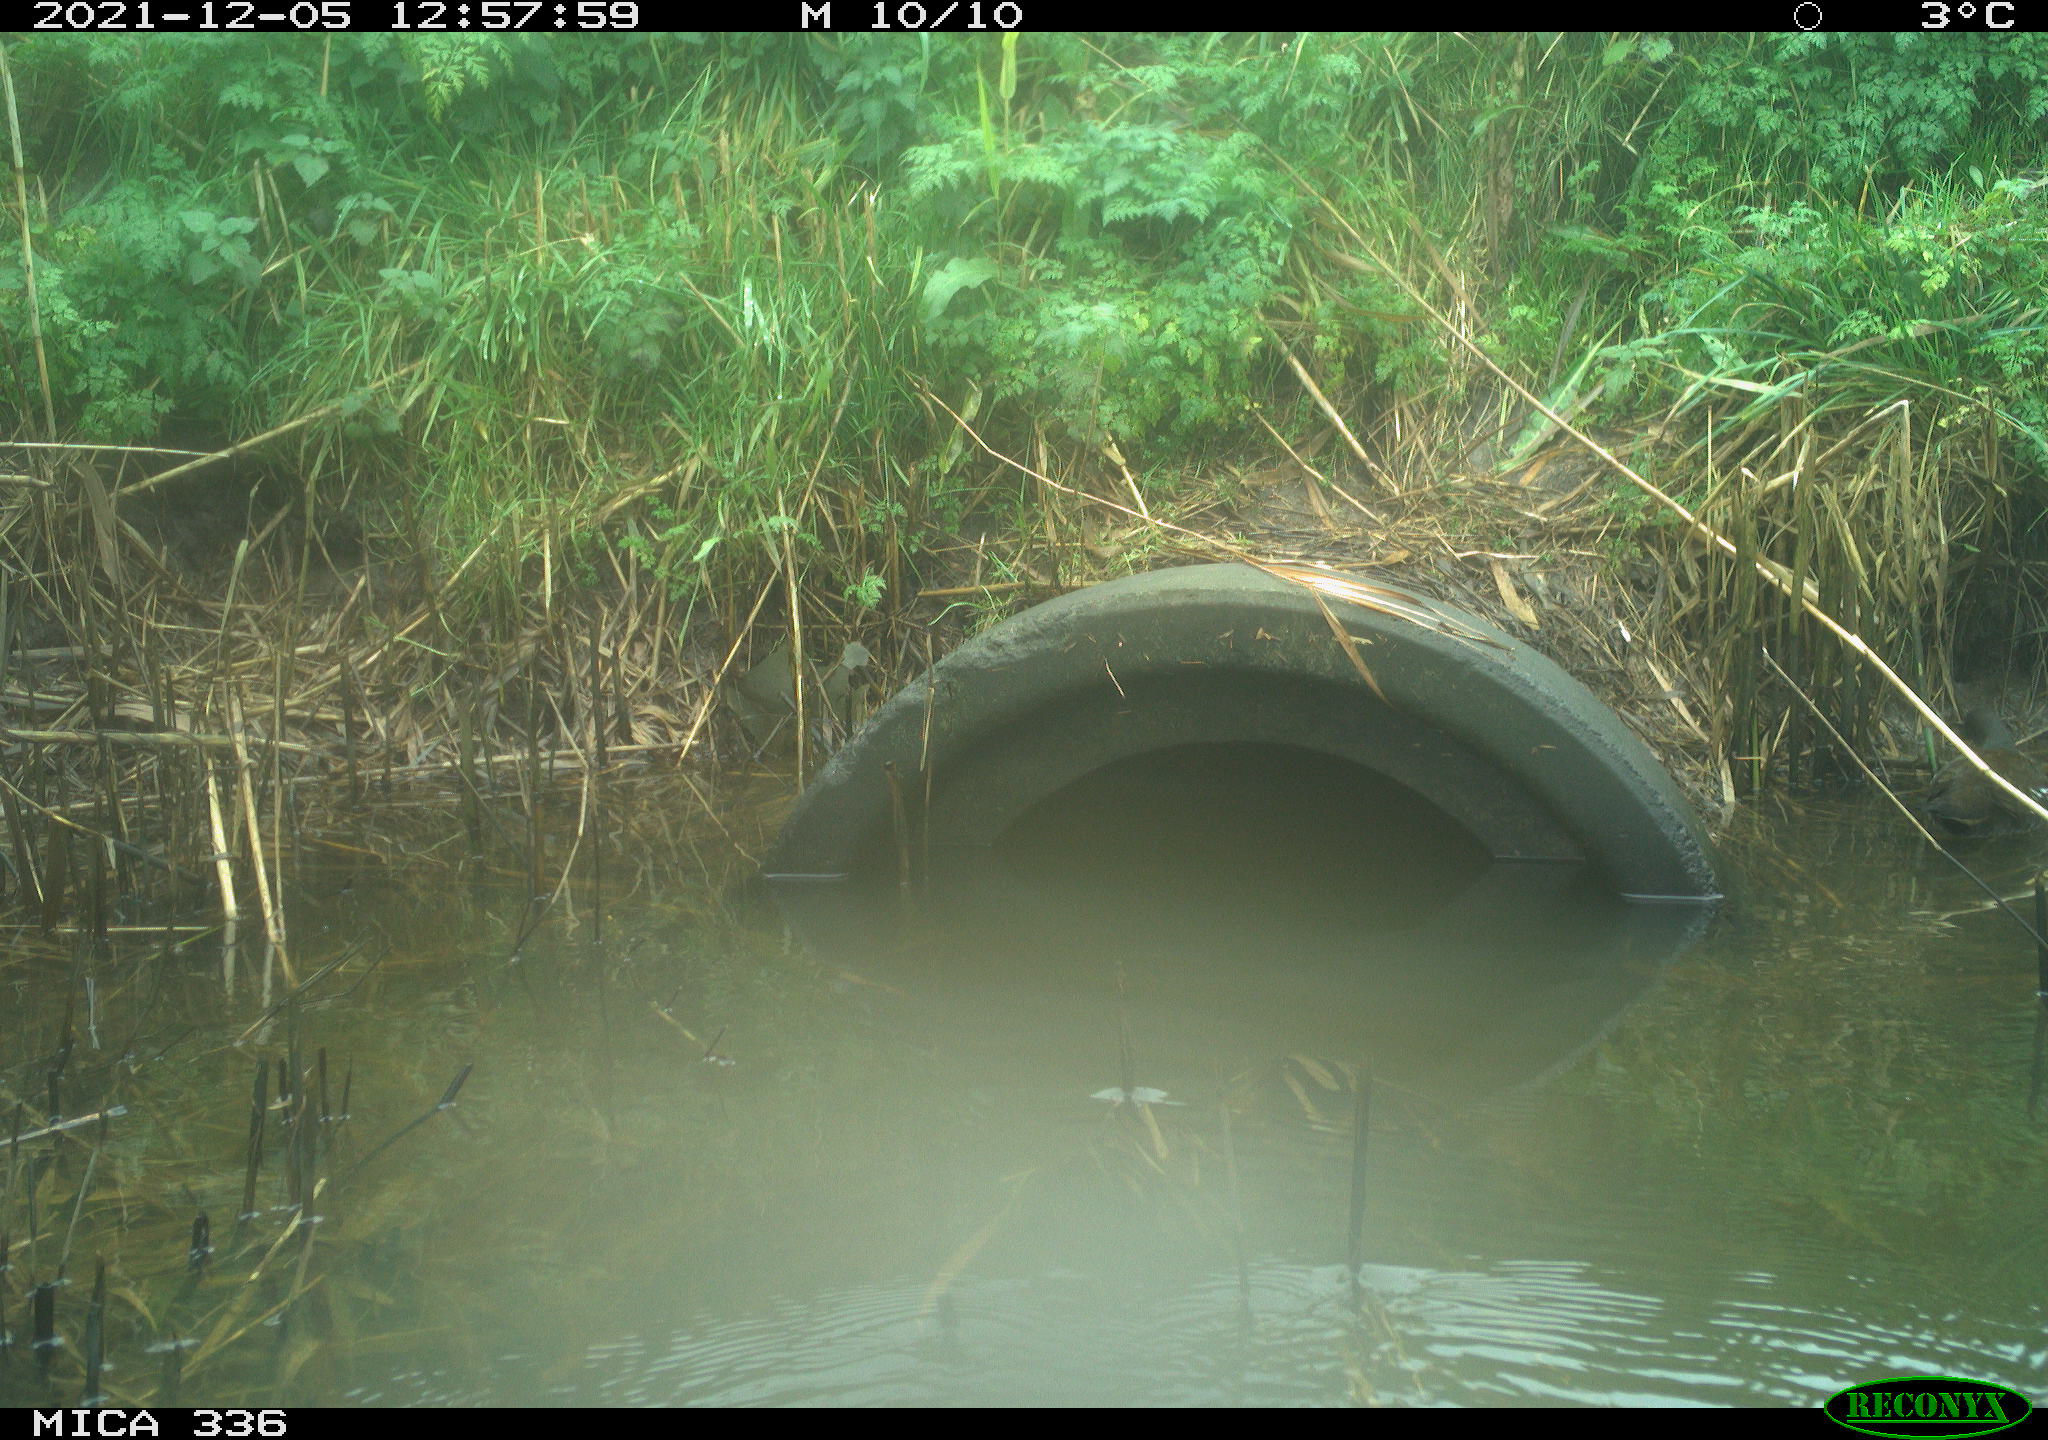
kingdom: Animalia
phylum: Chordata
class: Aves
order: Gruiformes
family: Rallidae
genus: Gallinula
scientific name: Gallinula chloropus
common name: Common moorhen
